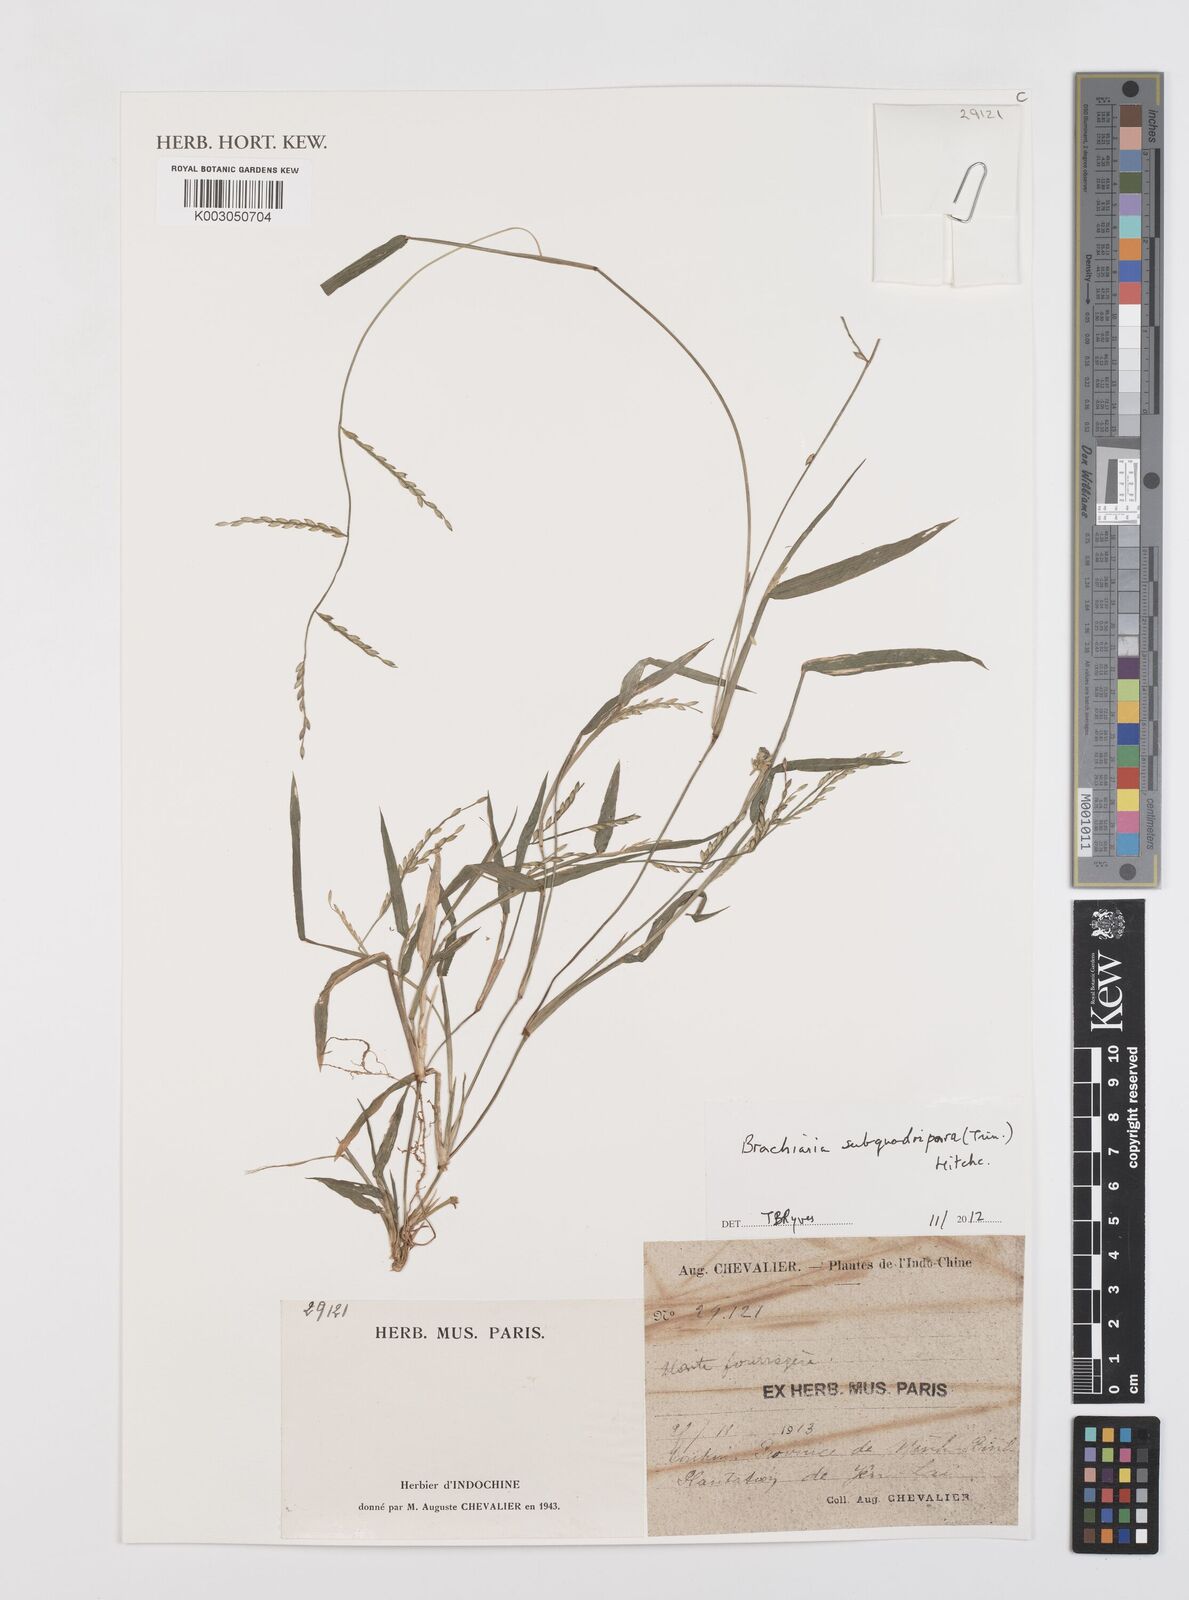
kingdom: Plantae
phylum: Tracheophyta
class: Liliopsida
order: Poales
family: Poaceae
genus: Urochloa
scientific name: Urochloa subquadripara
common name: Armgrass millet
